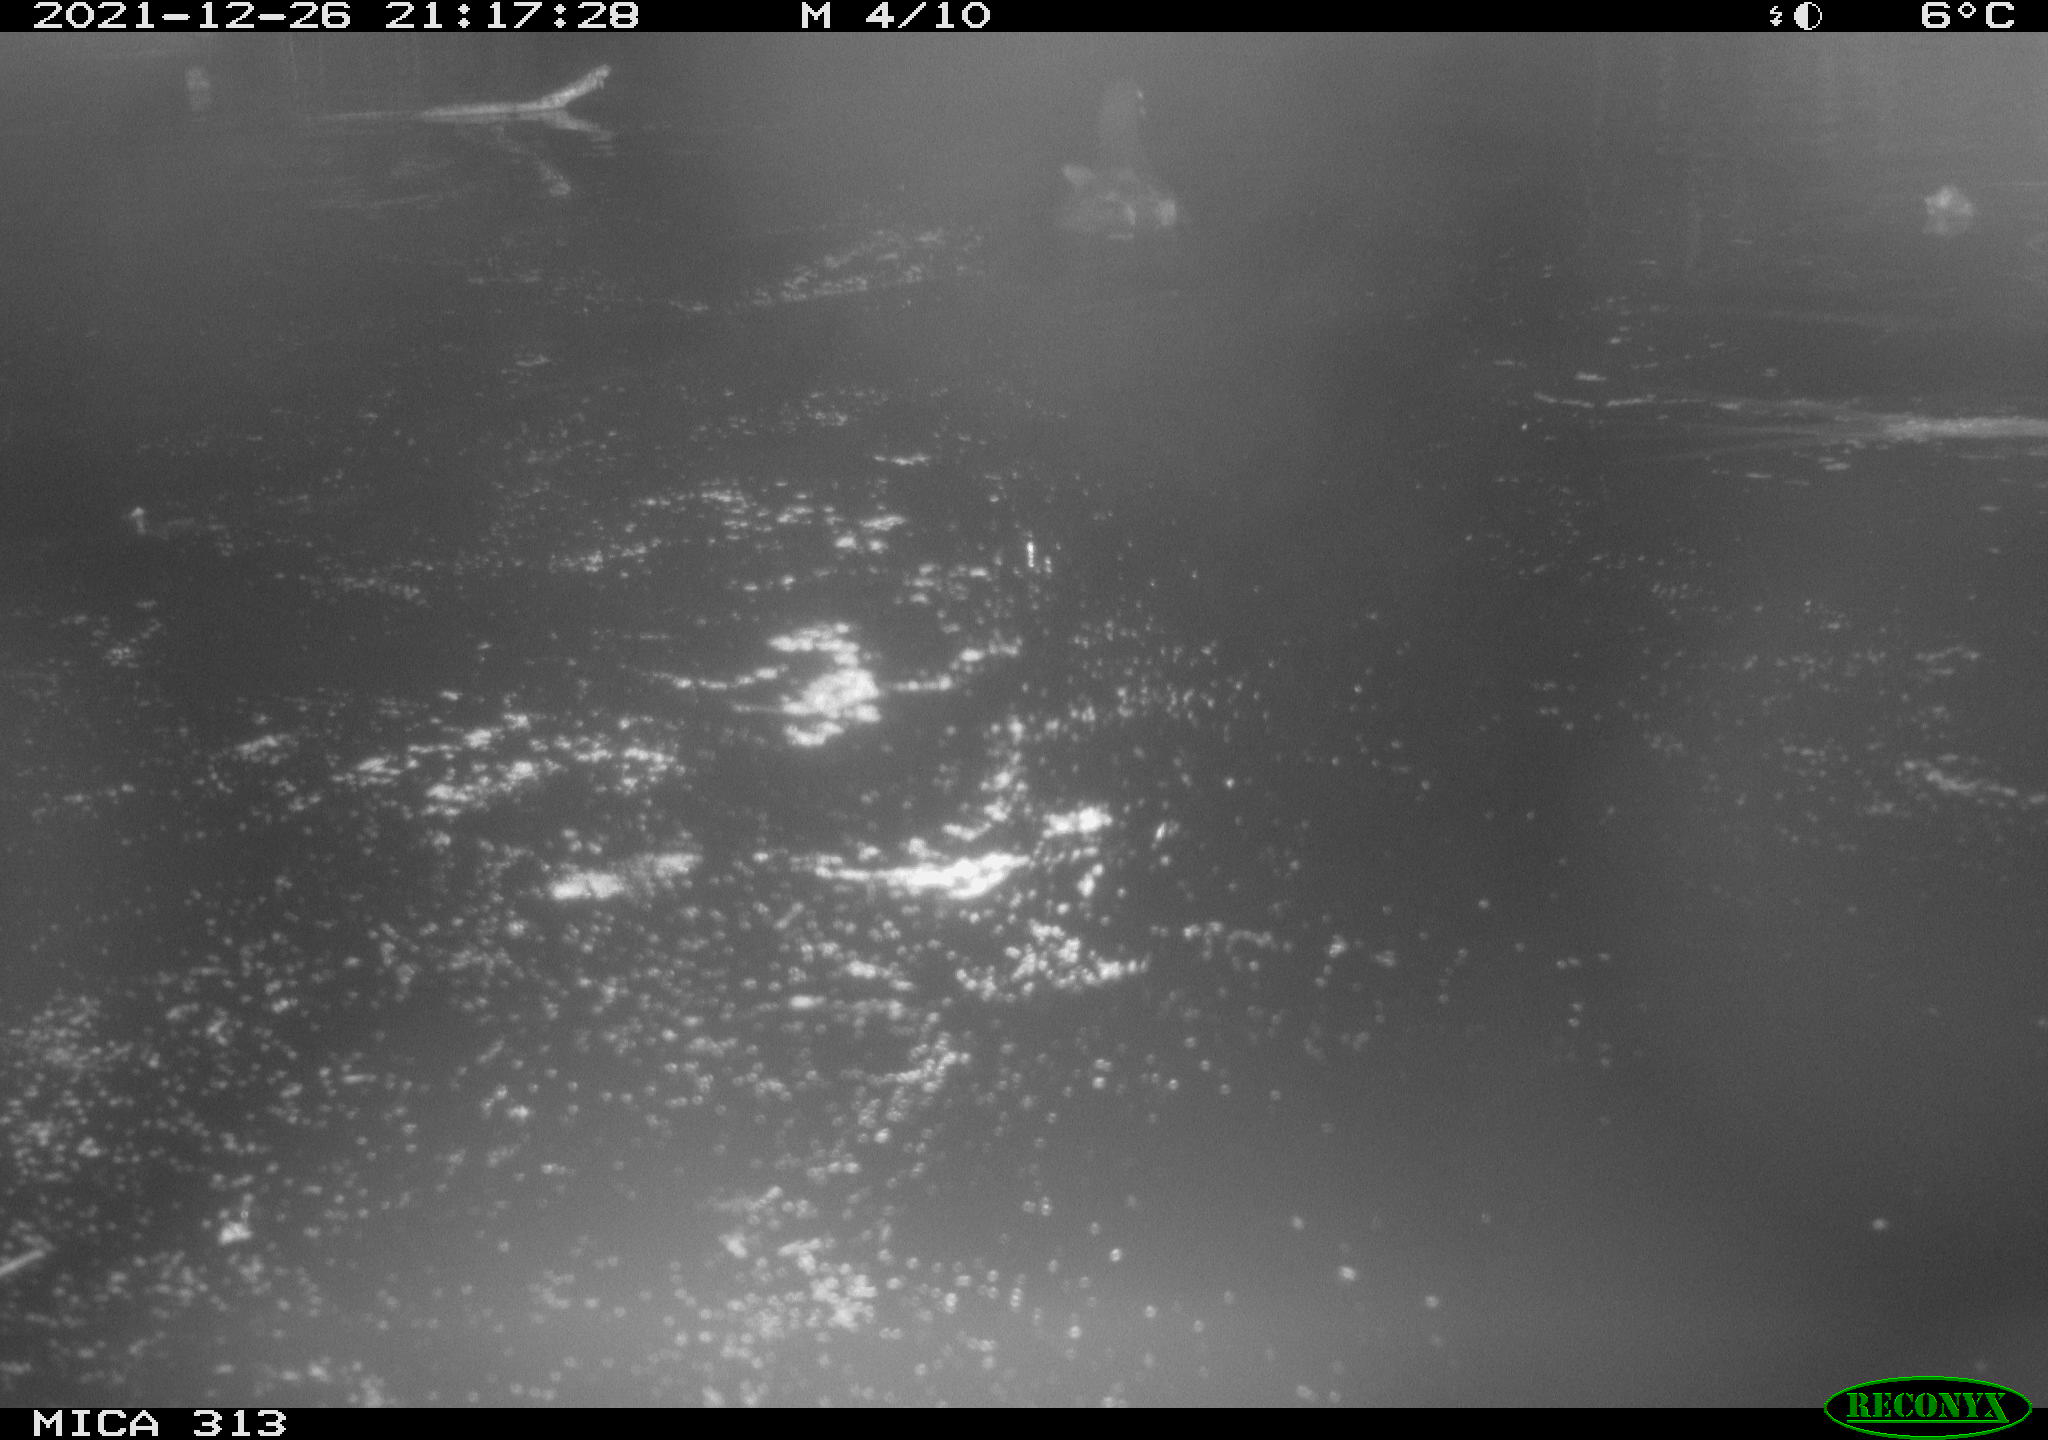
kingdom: Animalia
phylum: Chordata
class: Aves
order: Gruiformes
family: Rallidae
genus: Gallinula
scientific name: Gallinula chloropus
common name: Common moorhen
